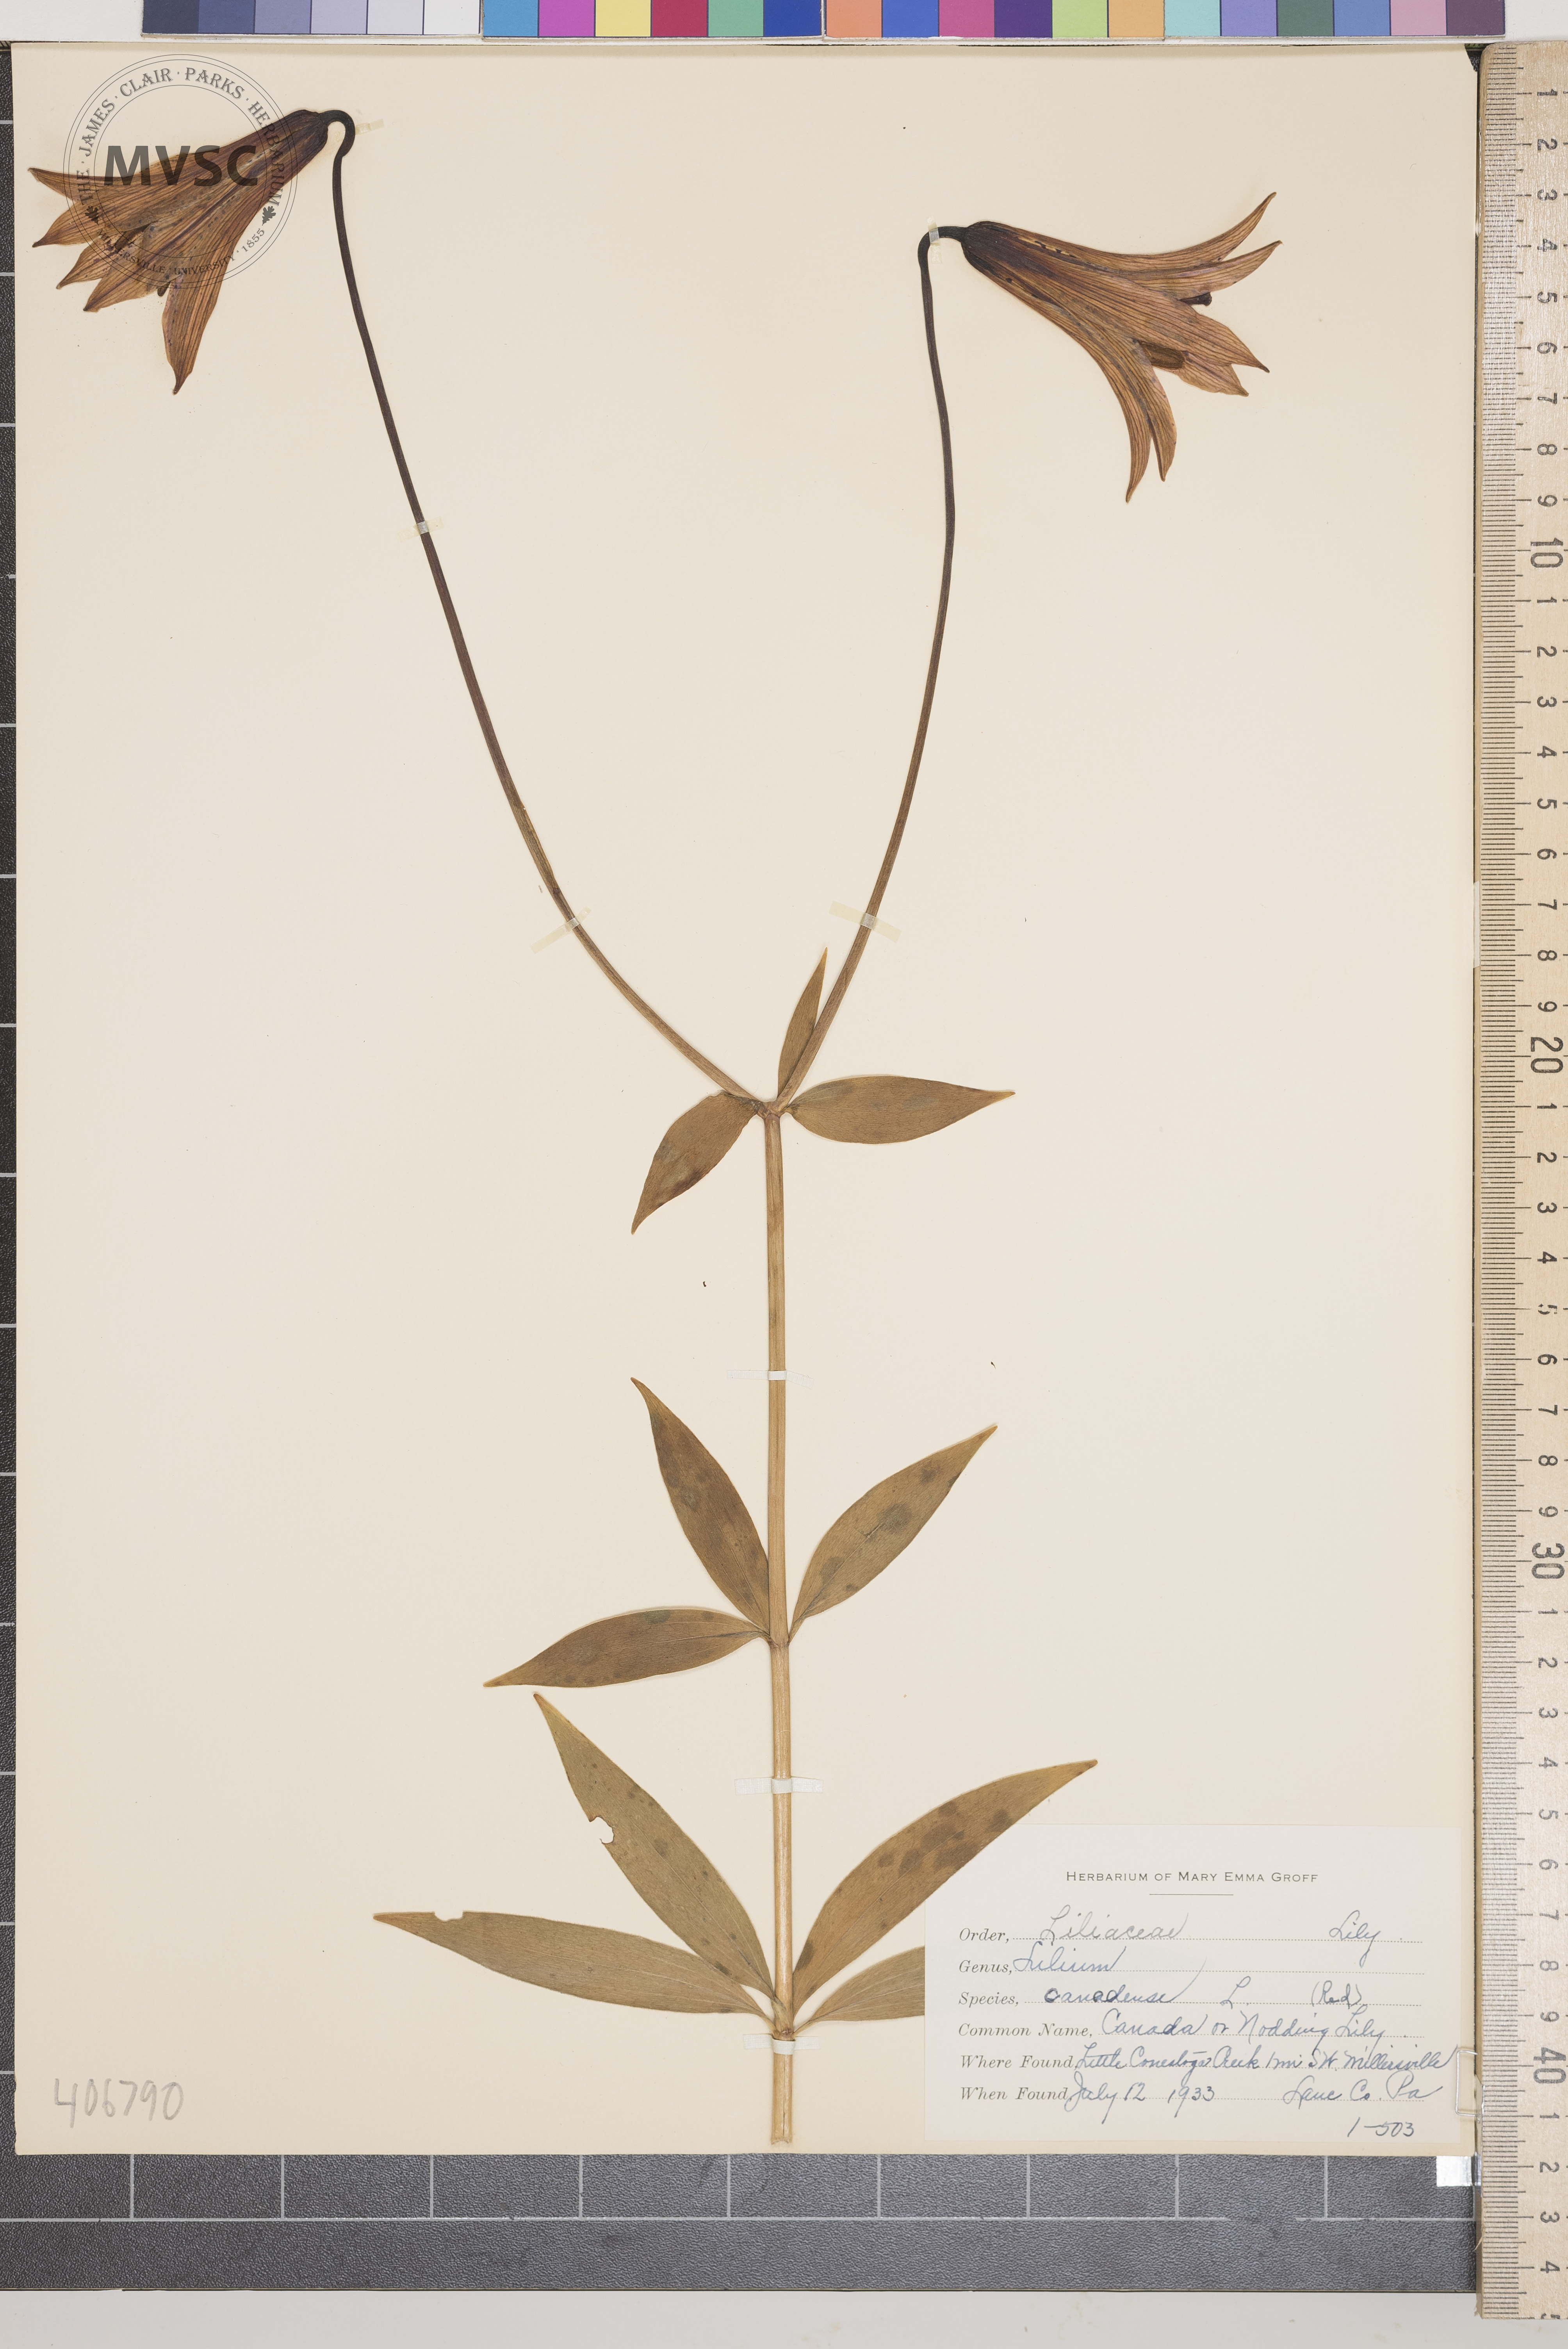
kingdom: Plantae
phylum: Tracheophyta
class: Liliopsida
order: Liliales
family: Liliaceae
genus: Lilium
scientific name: Lilium canadense
